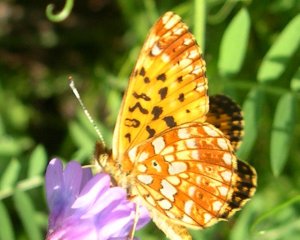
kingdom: Animalia
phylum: Arthropoda
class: Insecta
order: Lepidoptera
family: Nymphalidae
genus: Boloria
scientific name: Boloria selene
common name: Silver-bordered Fritillary
